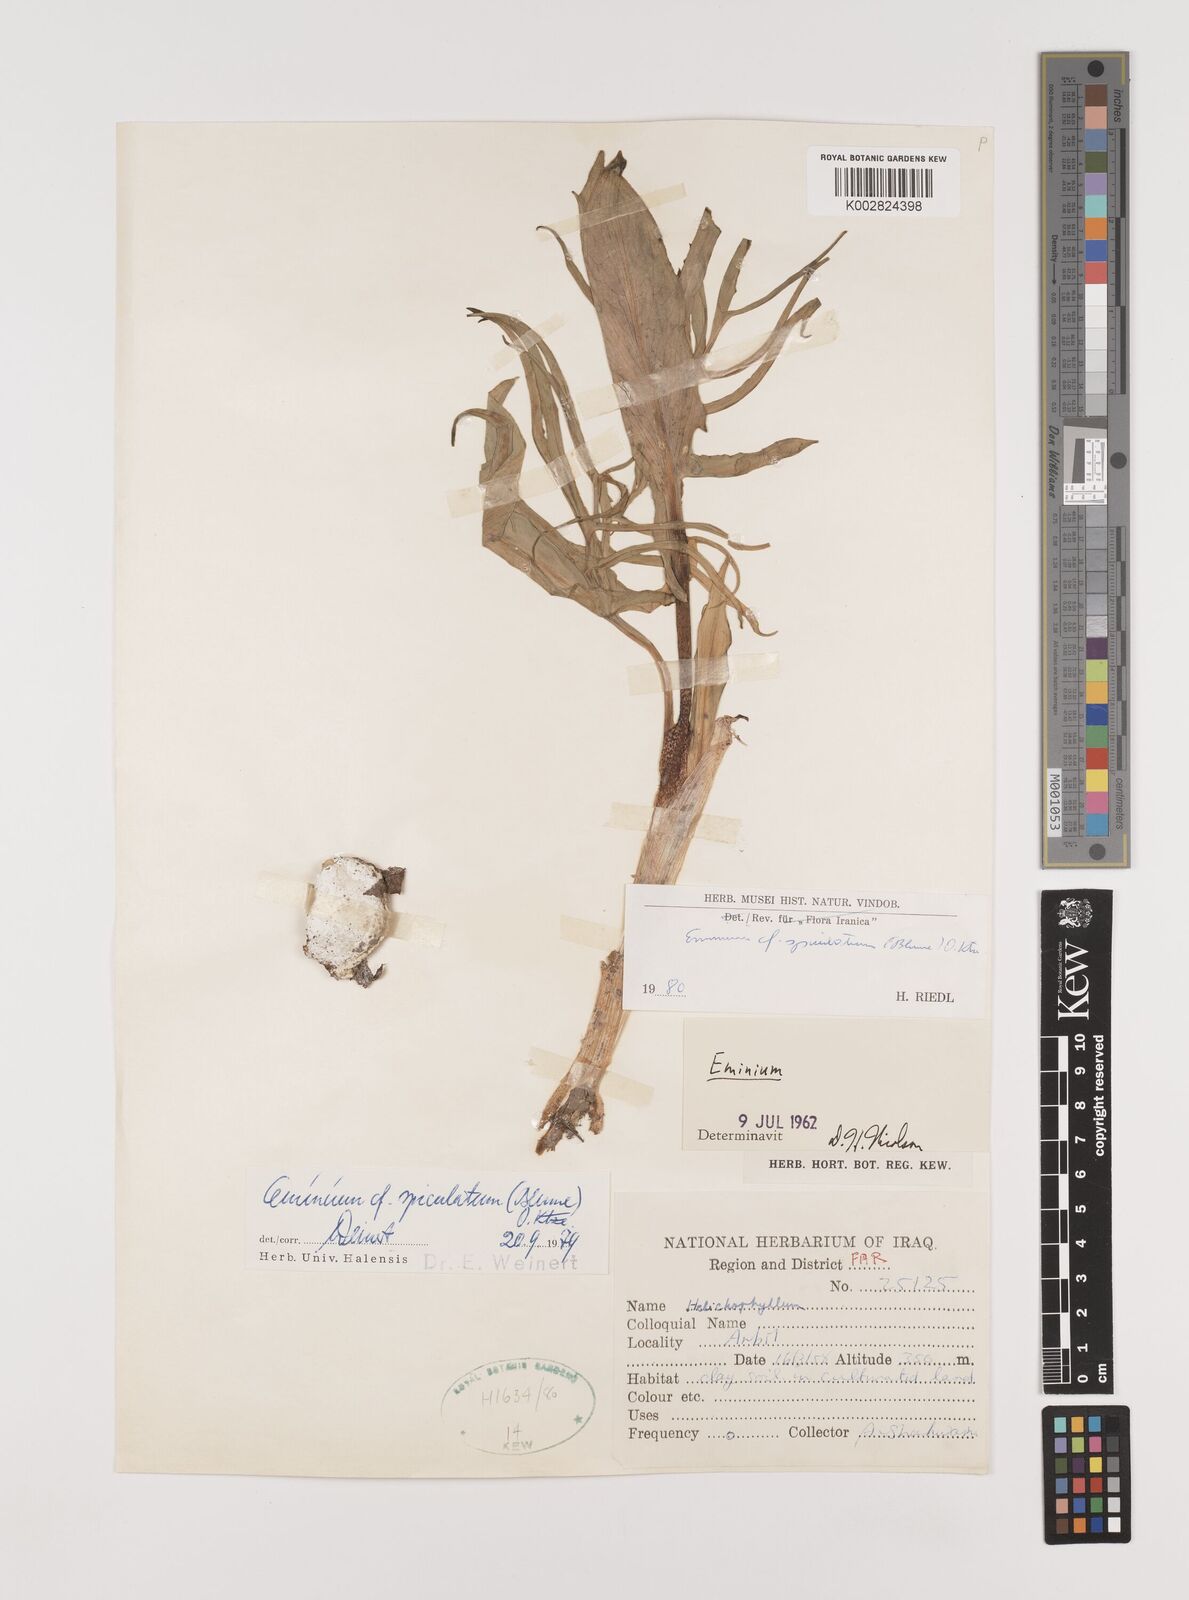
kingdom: Plantae
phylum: Tracheophyta
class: Liliopsida
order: Alismatales
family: Araceae
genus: Eminium
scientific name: Eminium spiculatum
